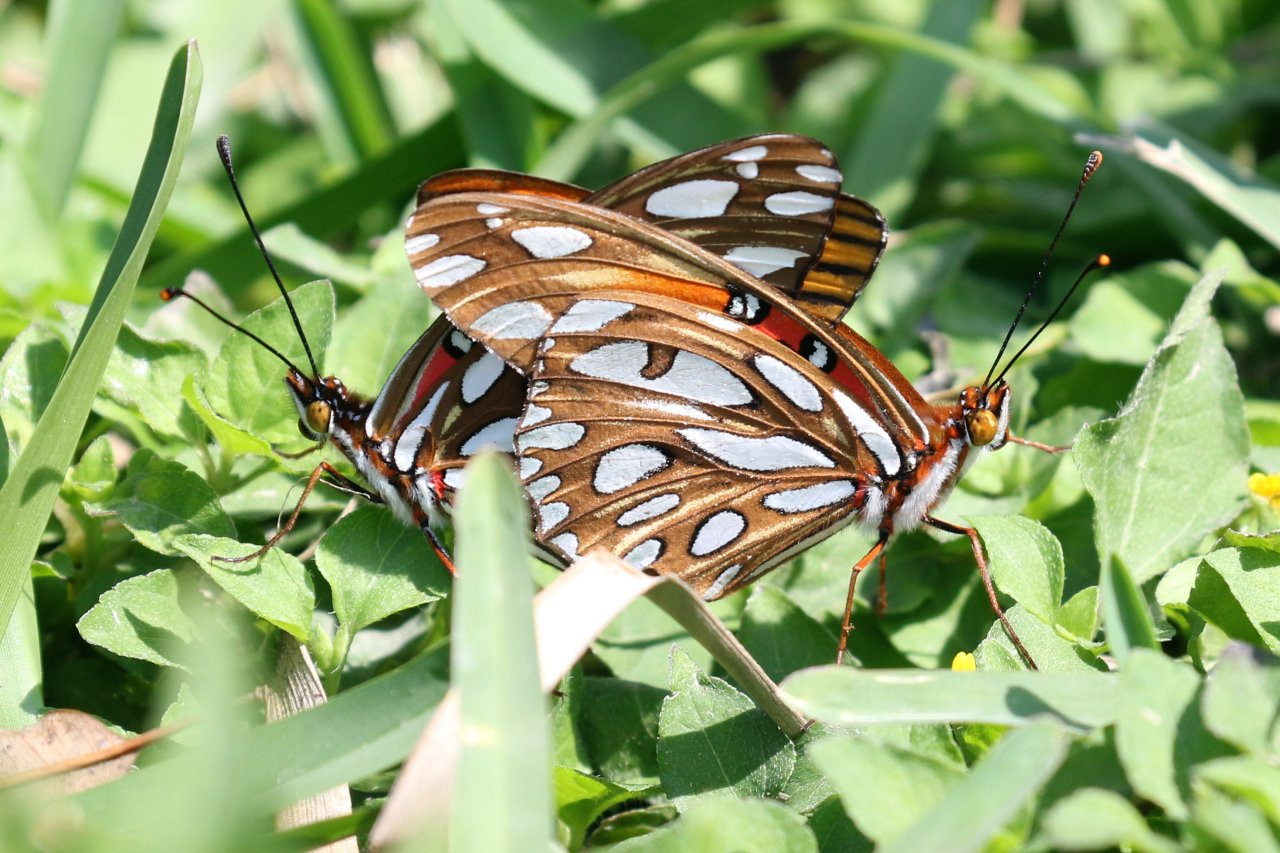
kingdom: Animalia
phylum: Arthropoda
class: Insecta
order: Lepidoptera
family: Nymphalidae
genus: Dione
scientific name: Dione vanillae
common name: Gulf Fritillary
